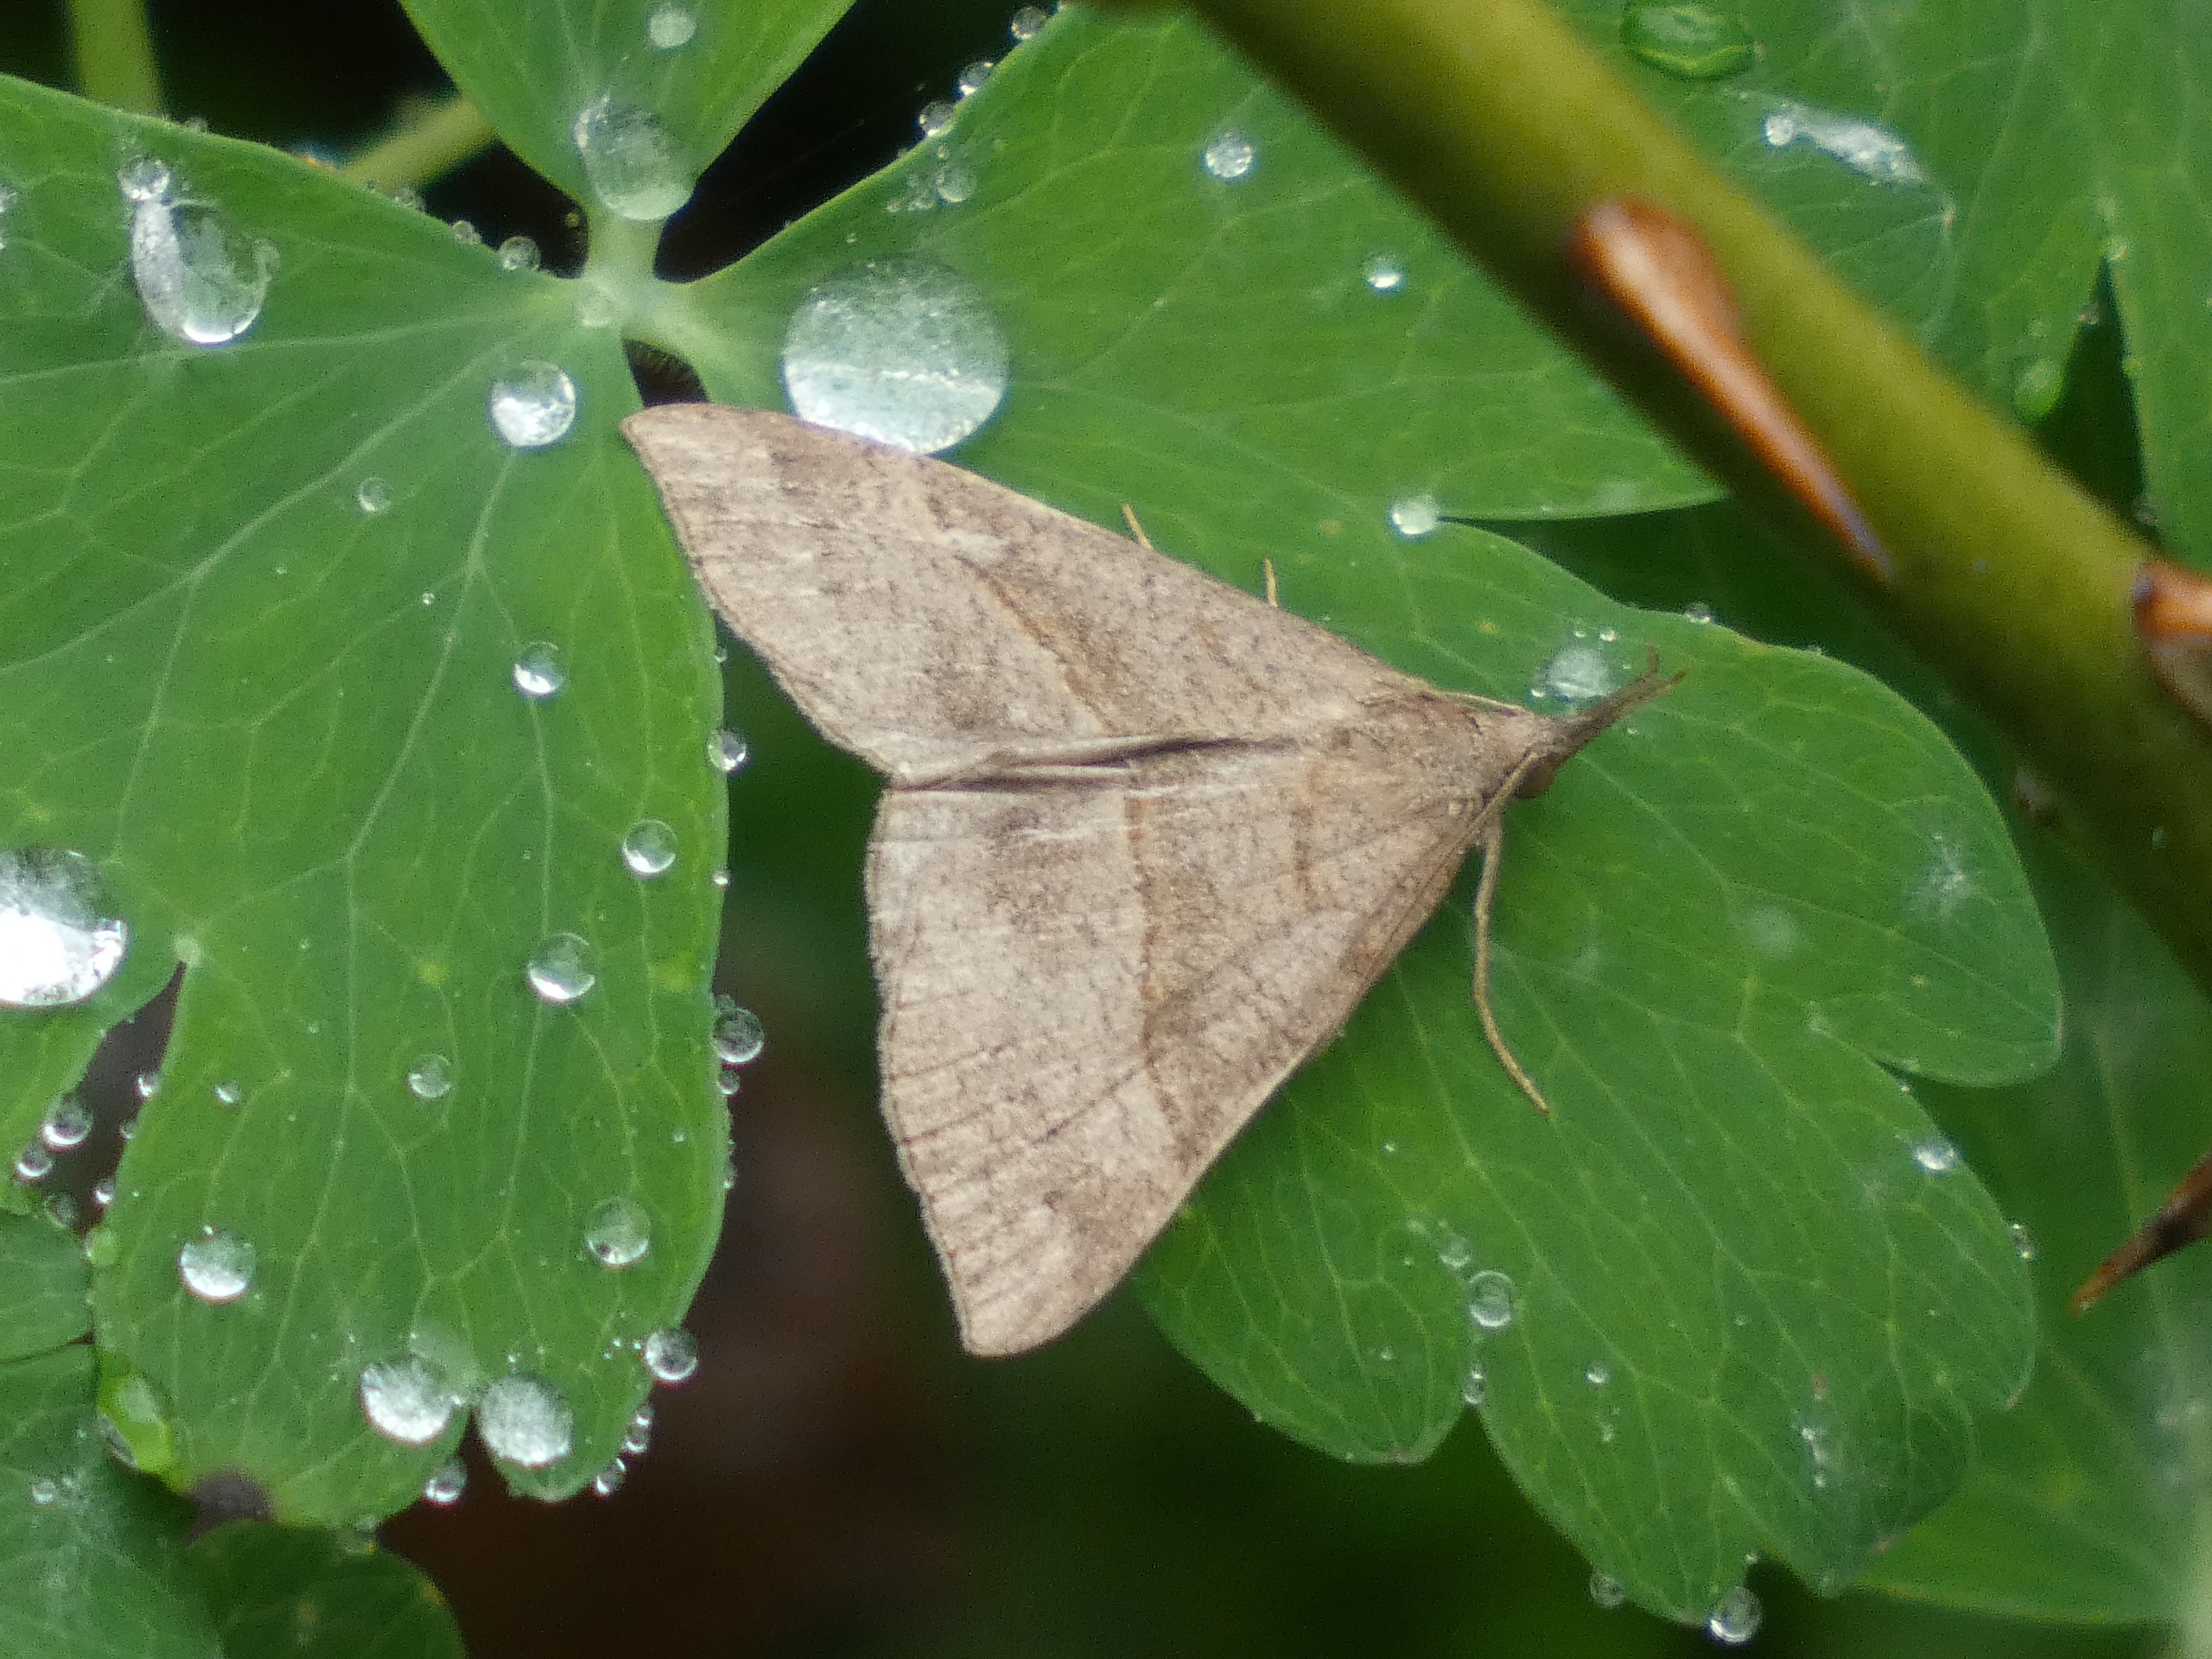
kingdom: Animalia
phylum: Arthropoda
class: Insecta
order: Lepidoptera
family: Erebidae
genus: Hypena
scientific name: Hypena proboscidalis
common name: Snudeugle
